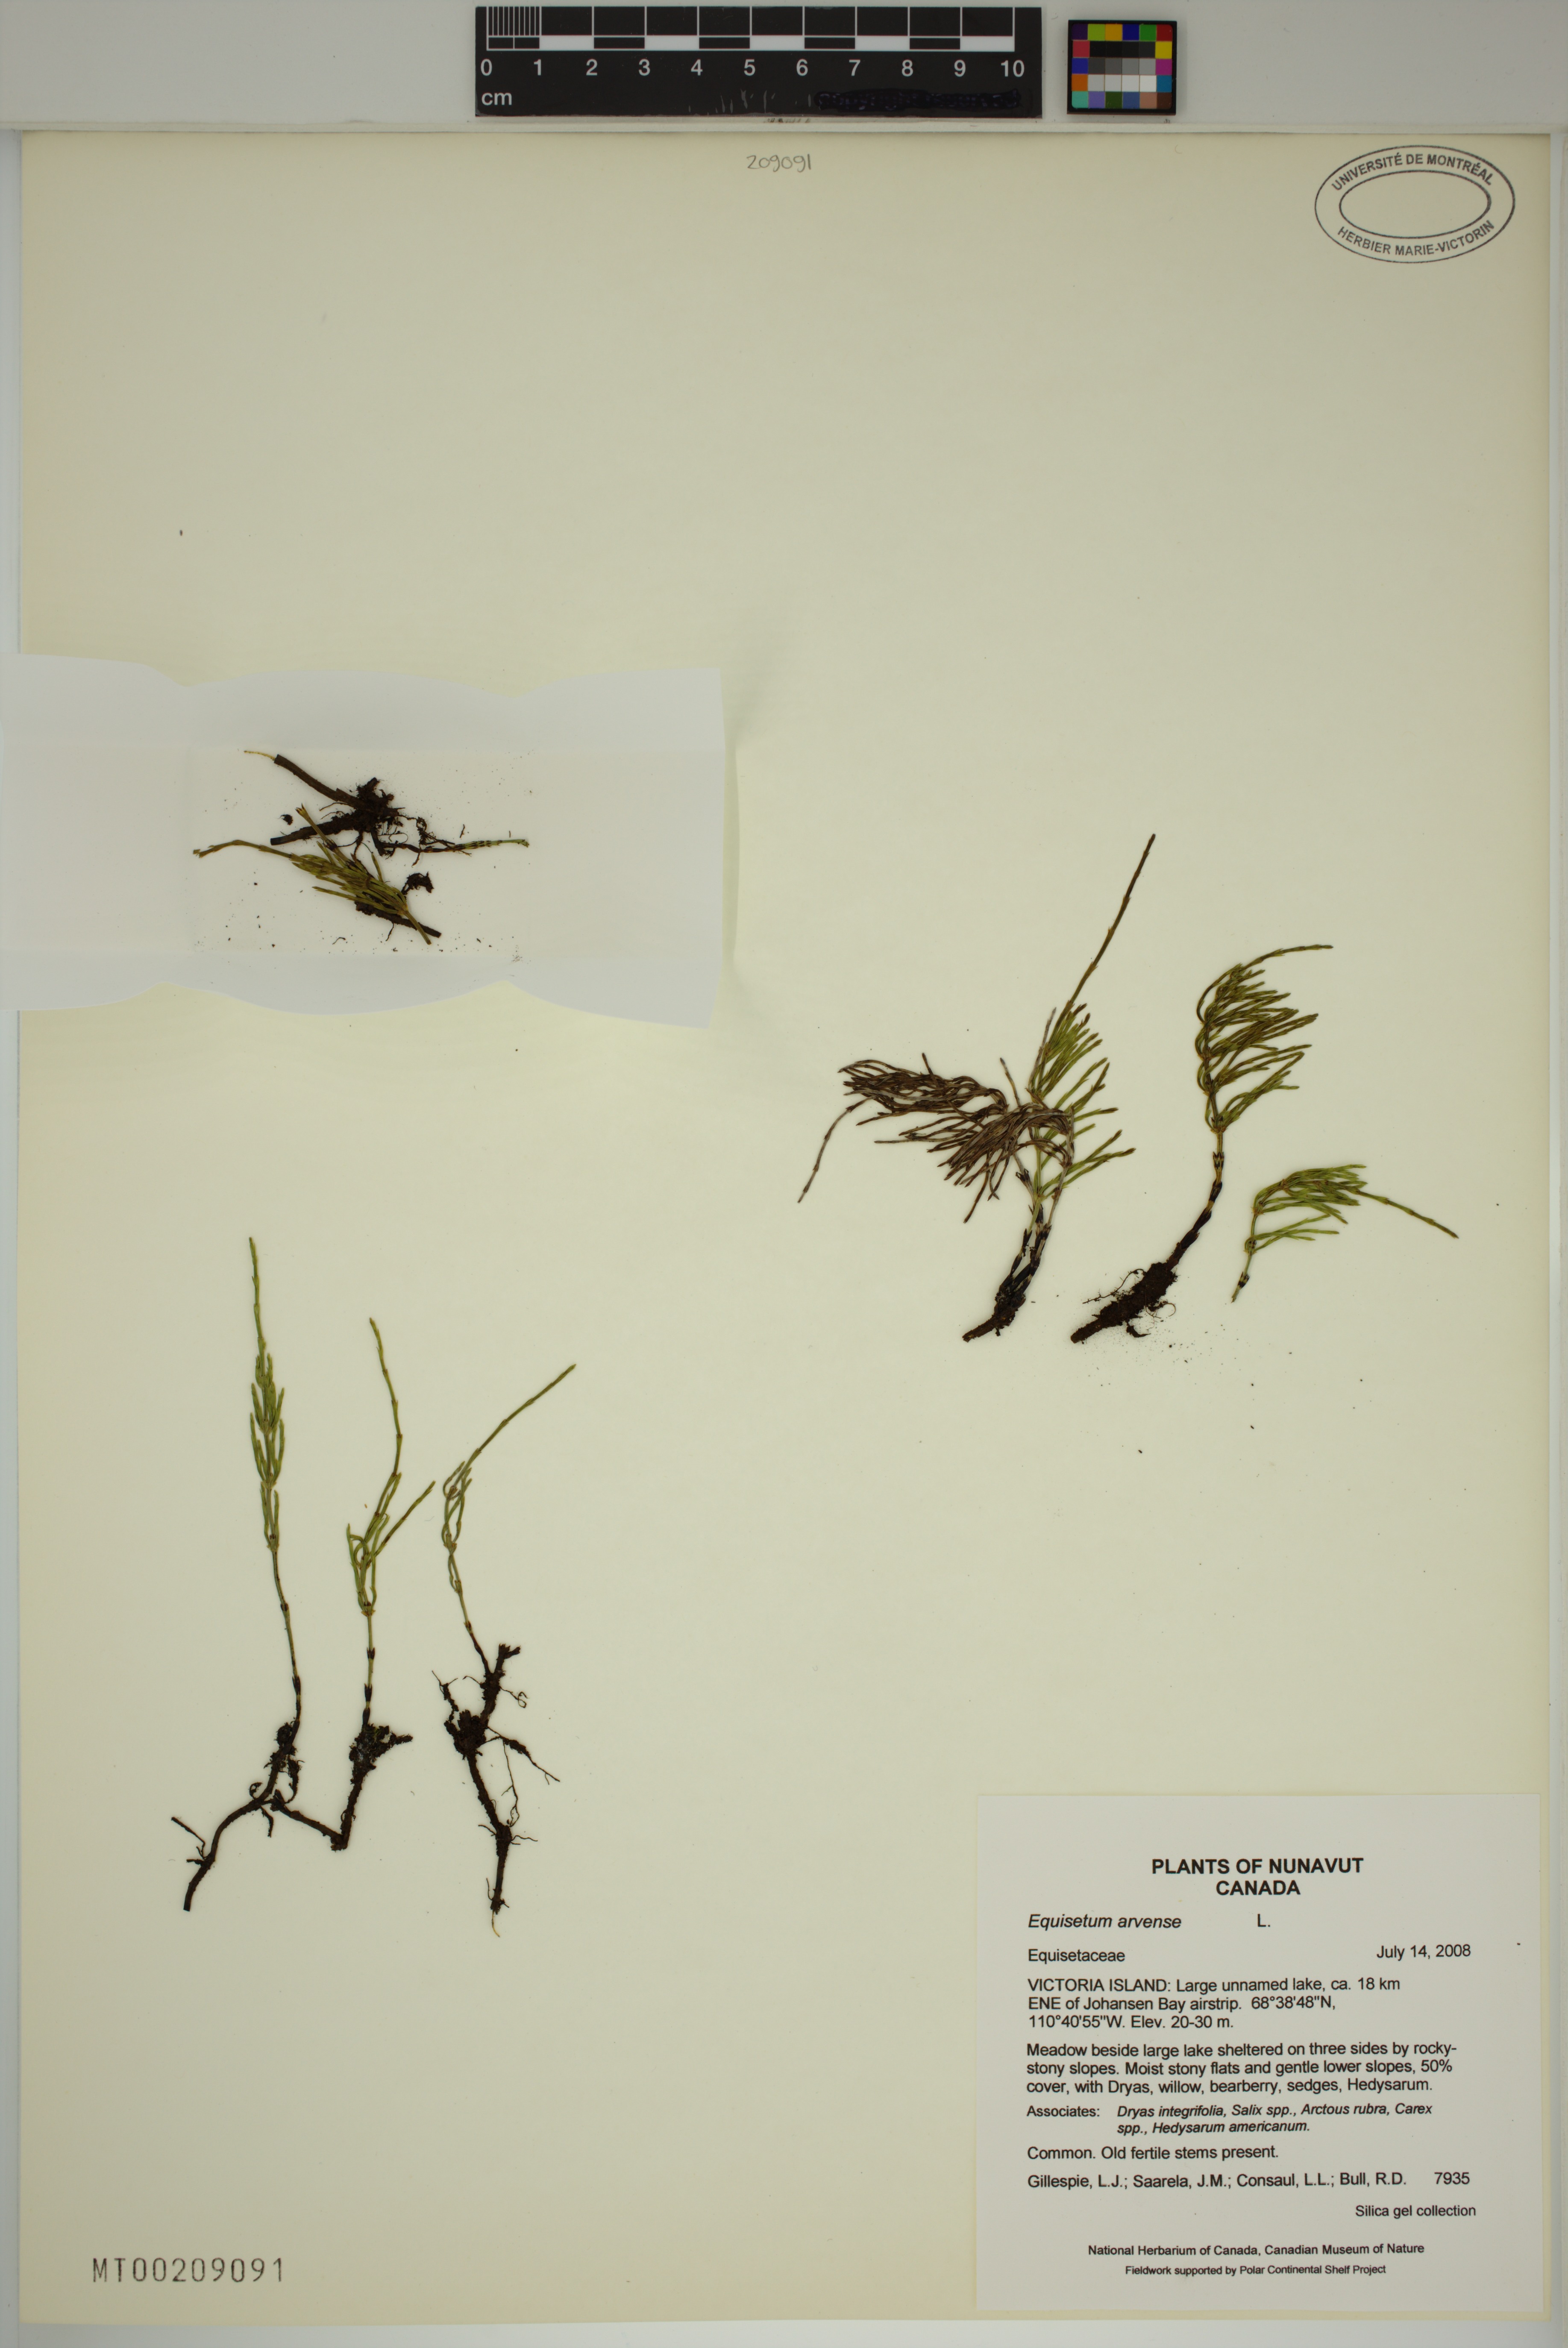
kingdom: Plantae
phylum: Tracheophyta
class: Polypodiopsida
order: Equisetales
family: Equisetaceae
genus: Equisetum
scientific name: Equisetum arvense
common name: Field horsetail
